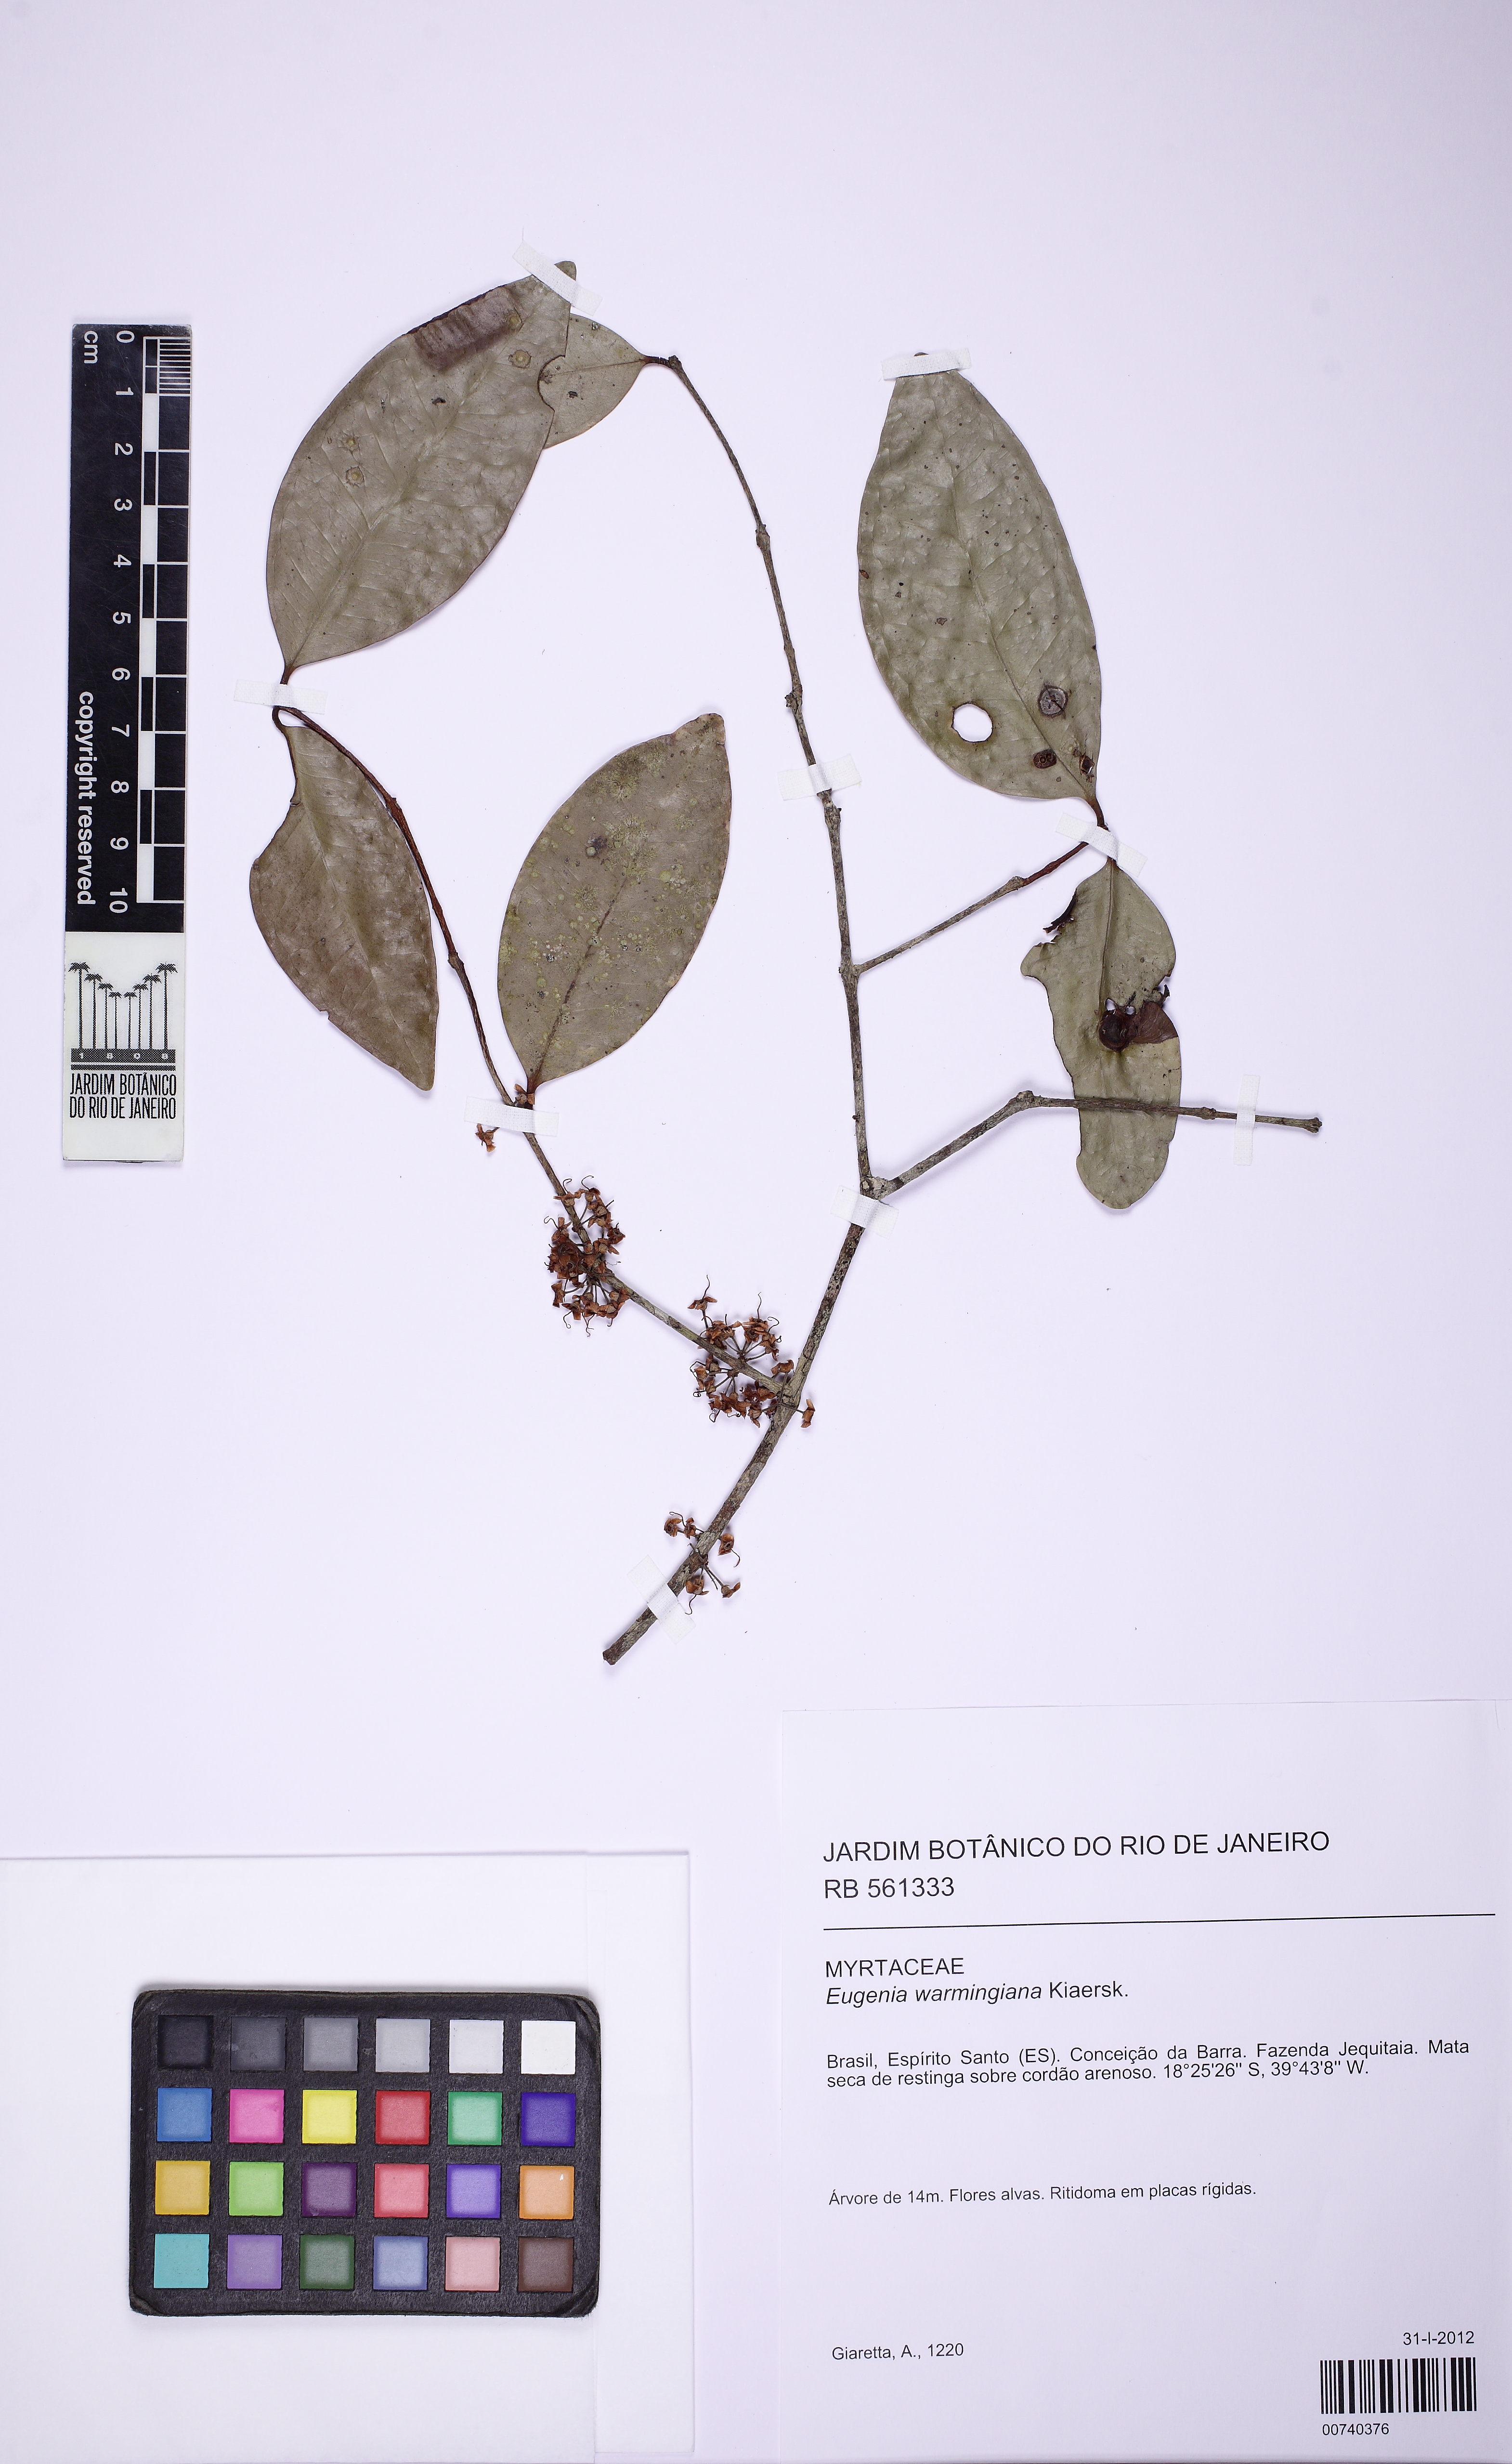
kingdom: Plantae
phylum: Tracheophyta
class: Magnoliopsida
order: Myrtales
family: Myrtaceae
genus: Eugenia
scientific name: Eugenia warmingiana
